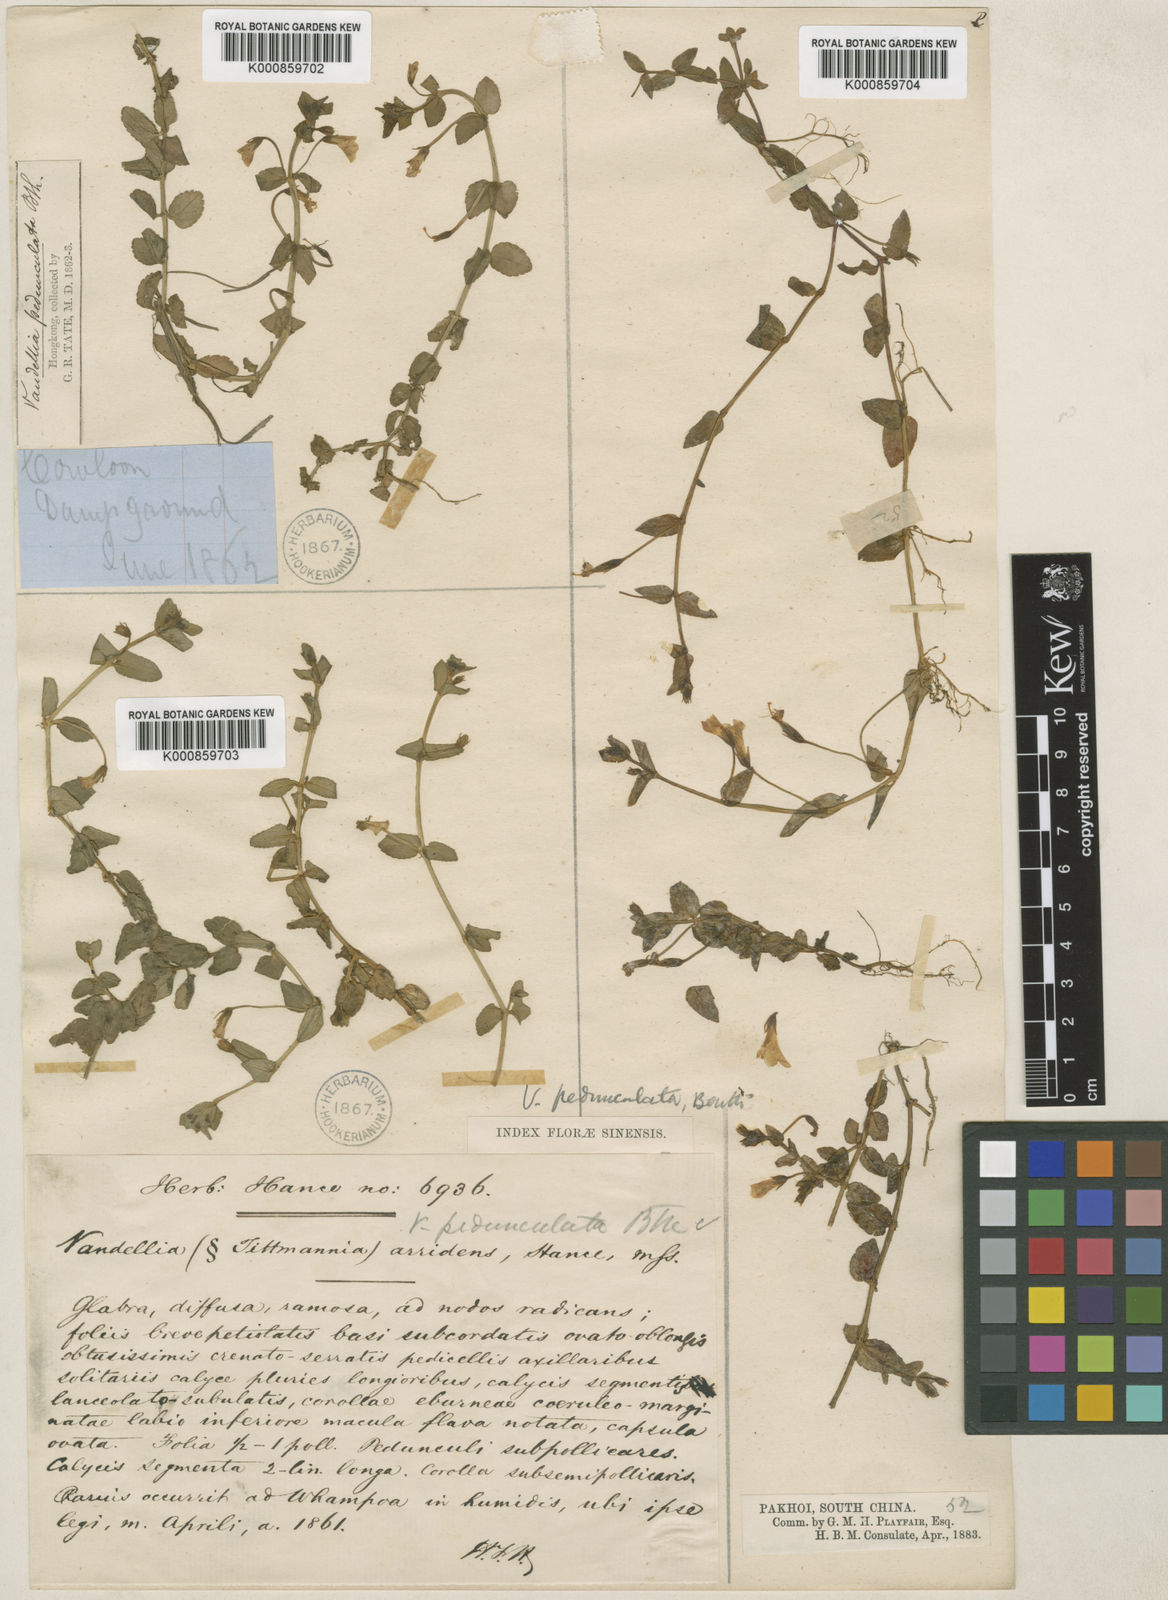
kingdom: Plantae
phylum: Tracheophyta
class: Magnoliopsida
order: Lamiales
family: Linderniaceae
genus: Torenia
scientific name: Torenia anagallis
